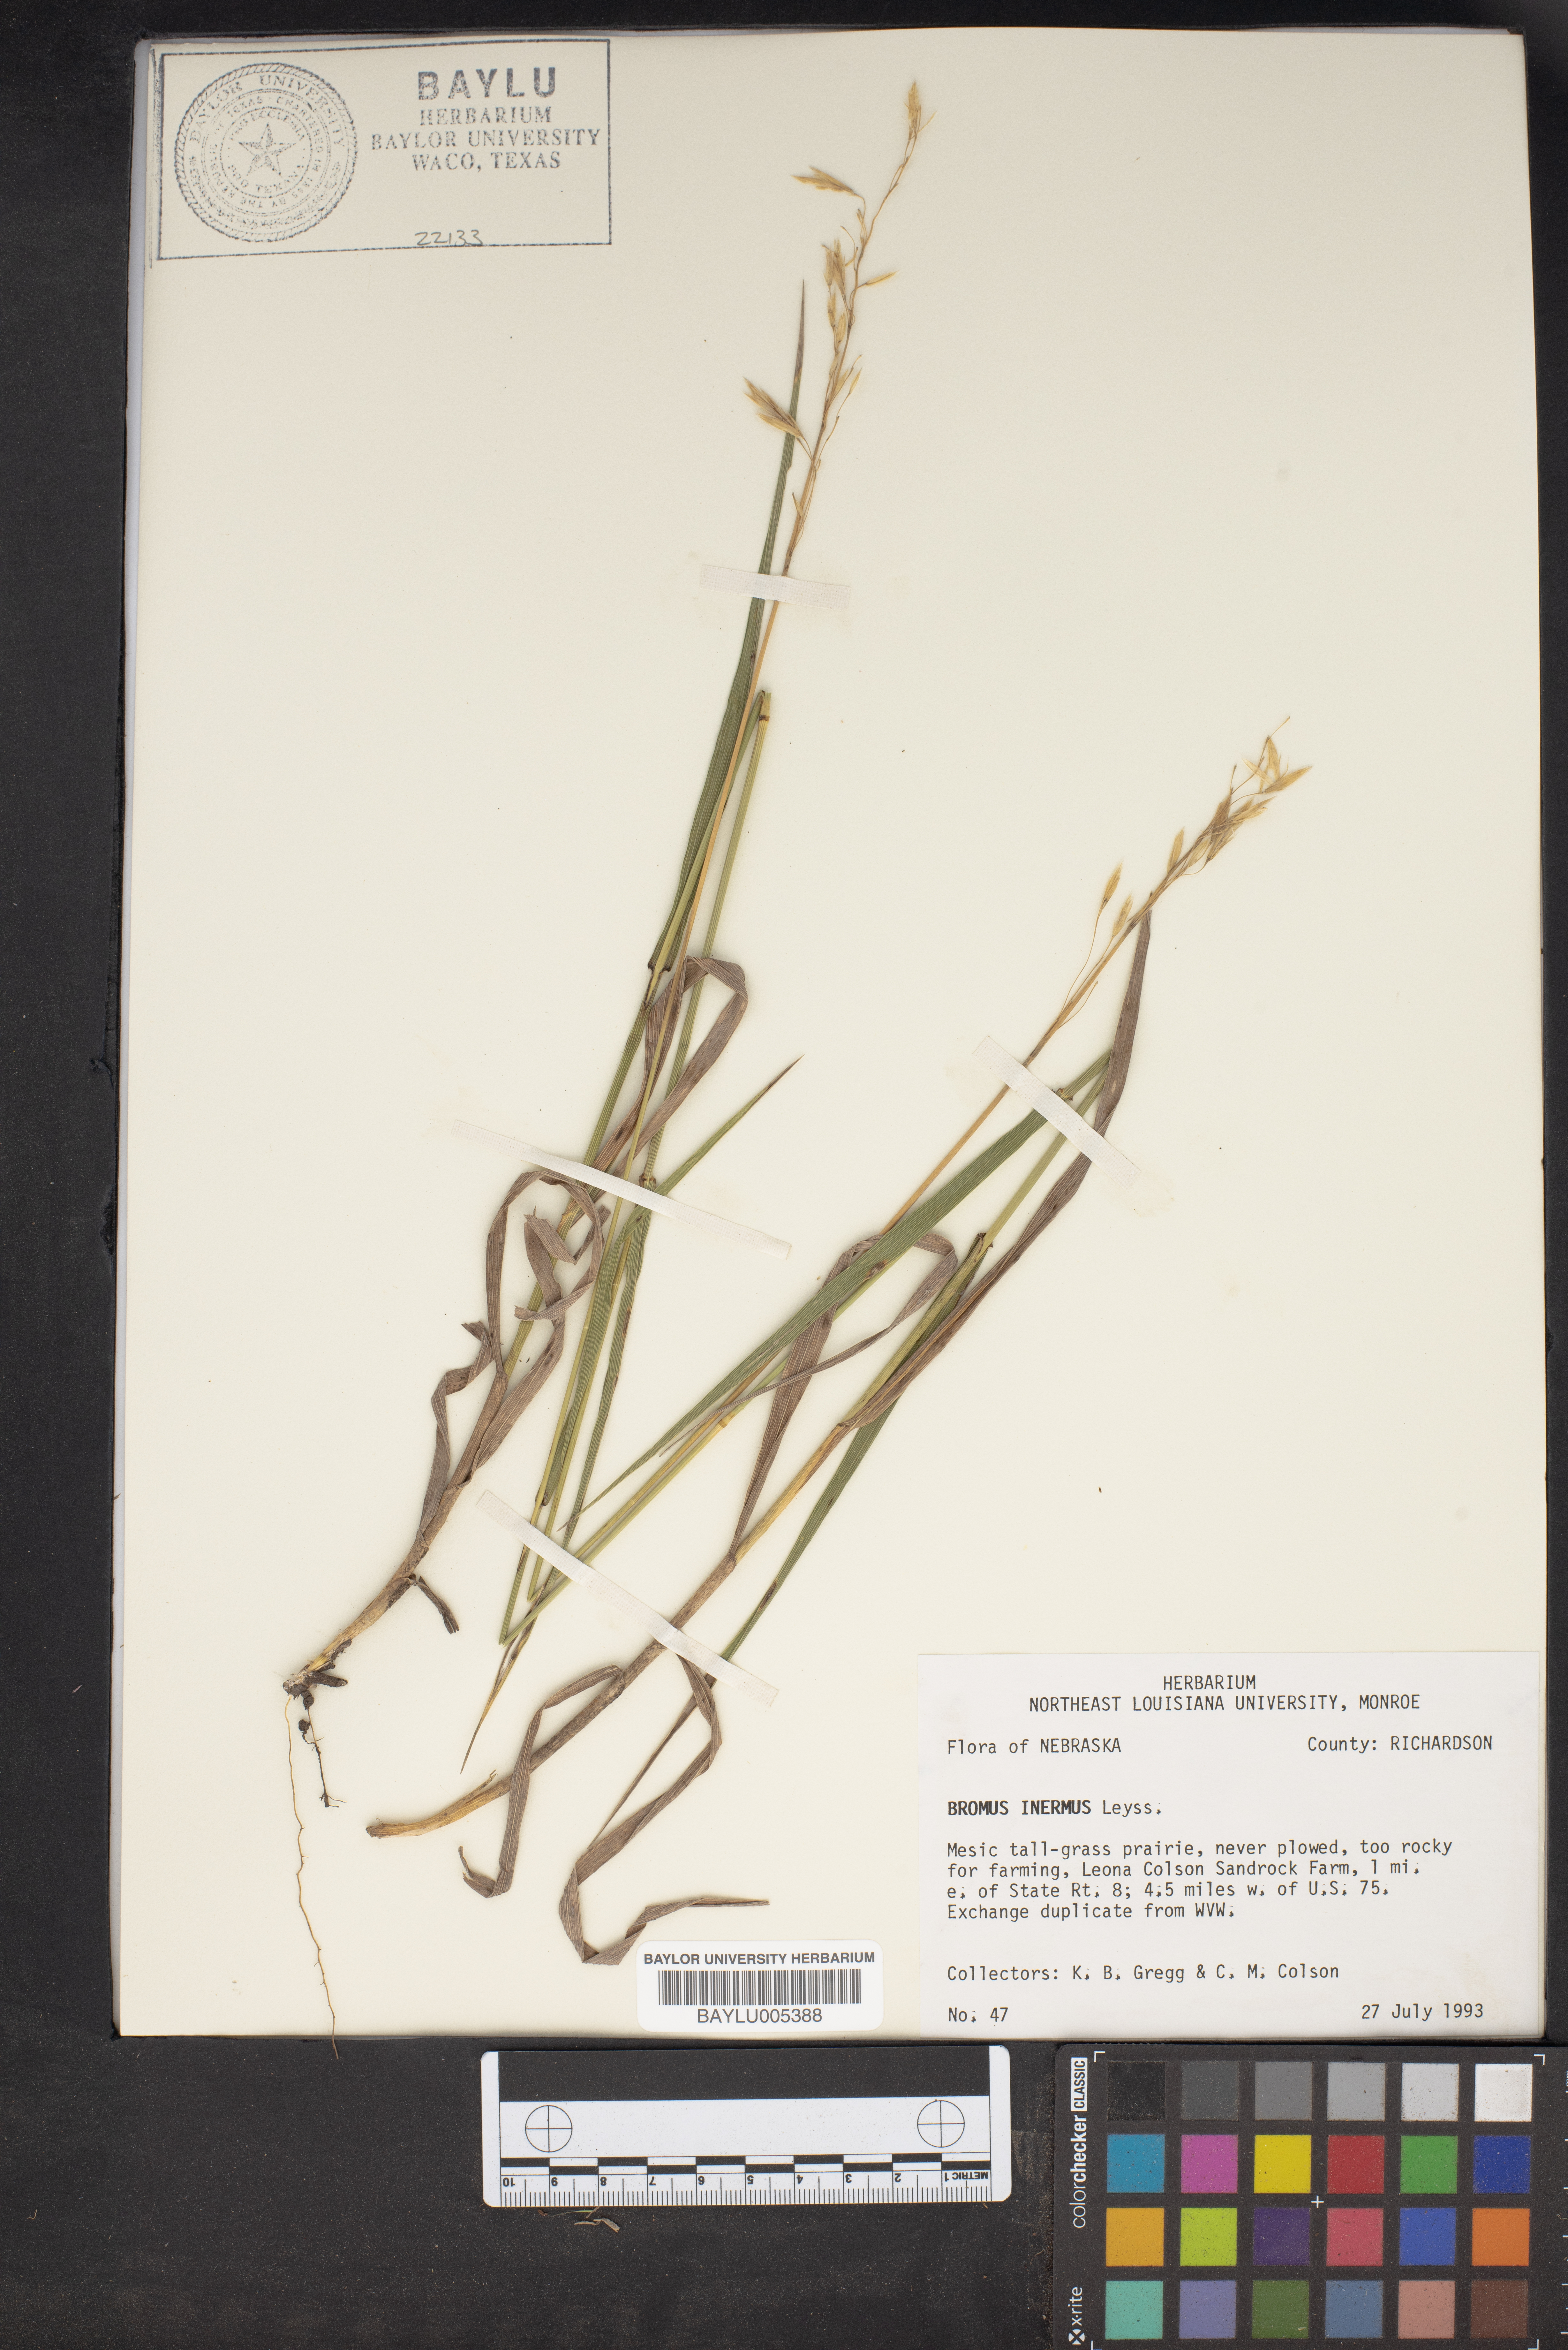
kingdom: Plantae
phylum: Tracheophyta
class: Liliopsida
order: Poales
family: Poaceae
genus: Bromus
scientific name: Bromus inermis
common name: Smooth brome
